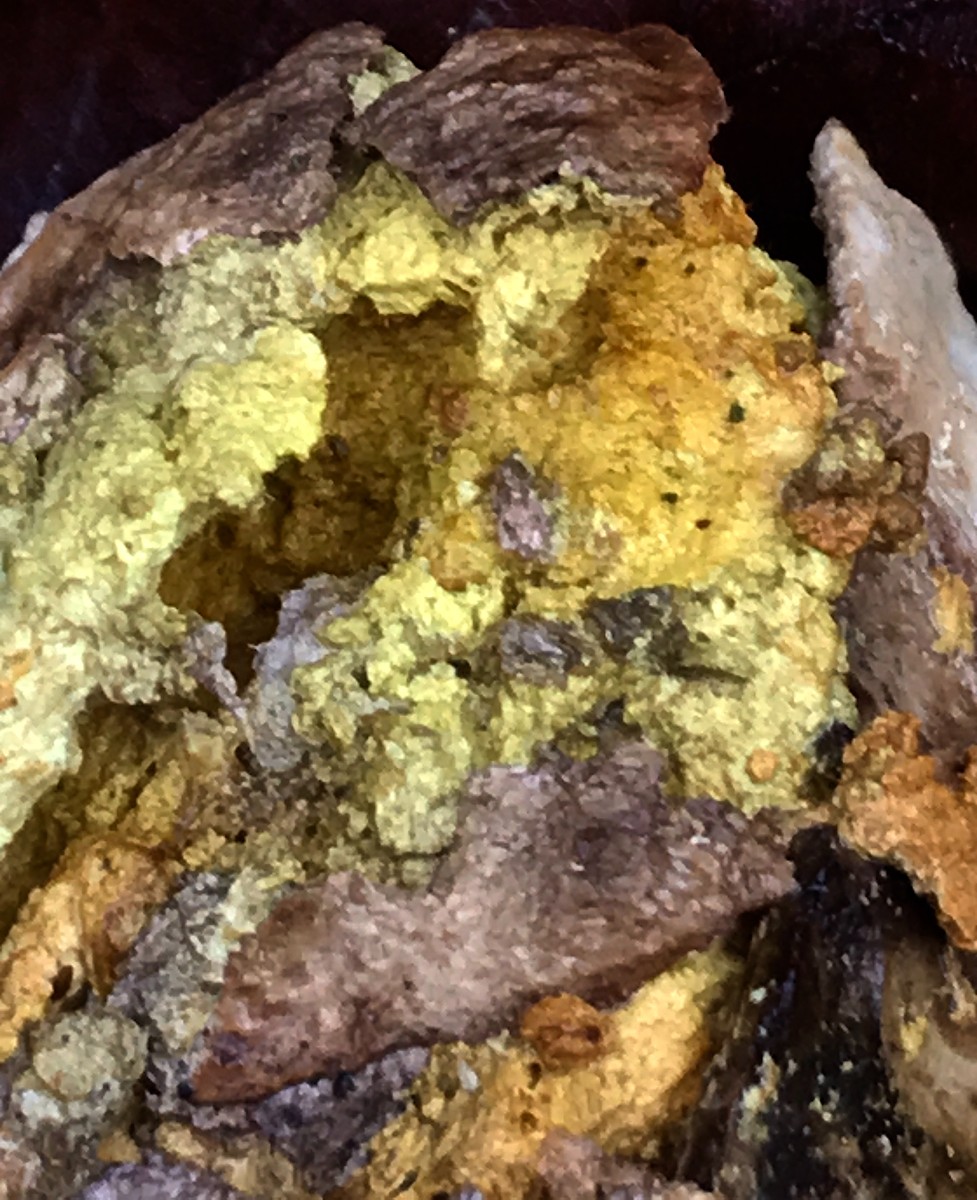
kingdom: Fungi
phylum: Ascomycota
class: Sordariomycetes
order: Hypocreales
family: Hypocreaceae
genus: Hypomyces
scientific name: Hypomyces
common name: snylteskorpe
